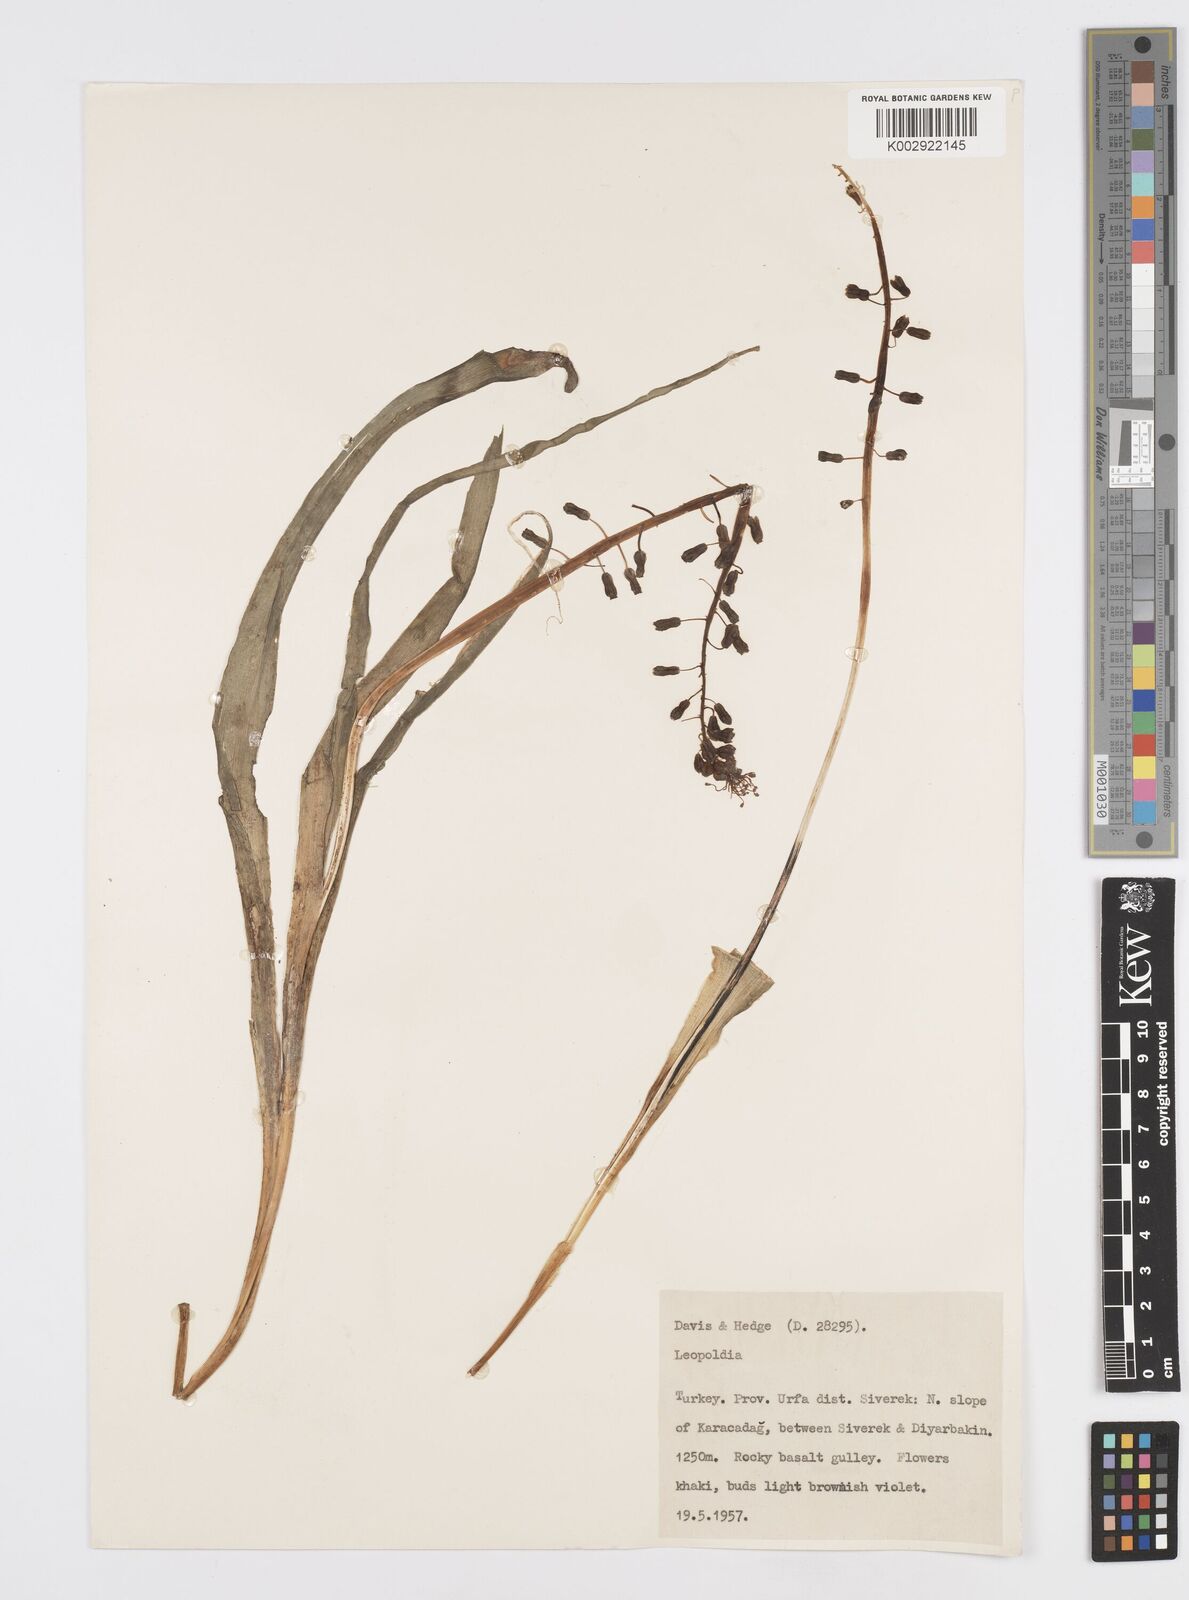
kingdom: Plantae
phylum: Tracheophyta
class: Liliopsida
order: Asparagales
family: Asparagaceae
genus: Muscari
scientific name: Muscari comosum
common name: Tassel hyacinth
